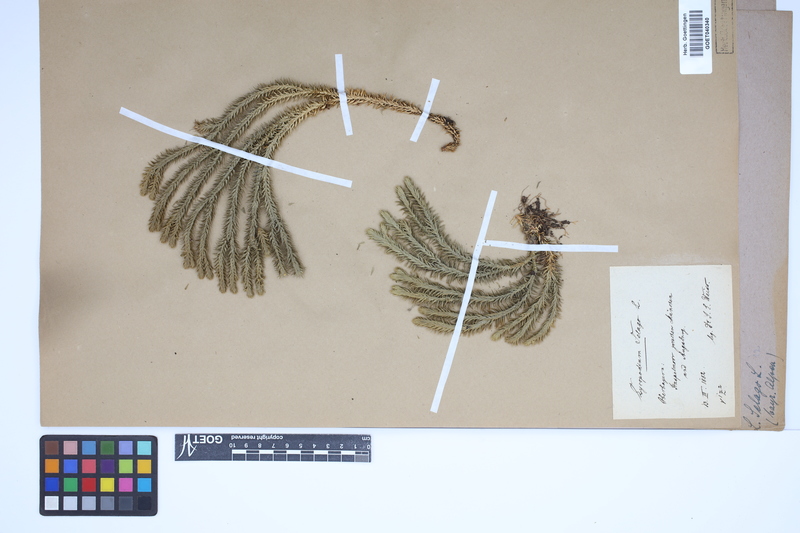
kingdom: Plantae
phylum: Tracheophyta
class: Lycopodiopsida
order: Lycopodiales
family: Lycopodiaceae
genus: Huperzia
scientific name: Huperzia selago
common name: Northern firmoss
